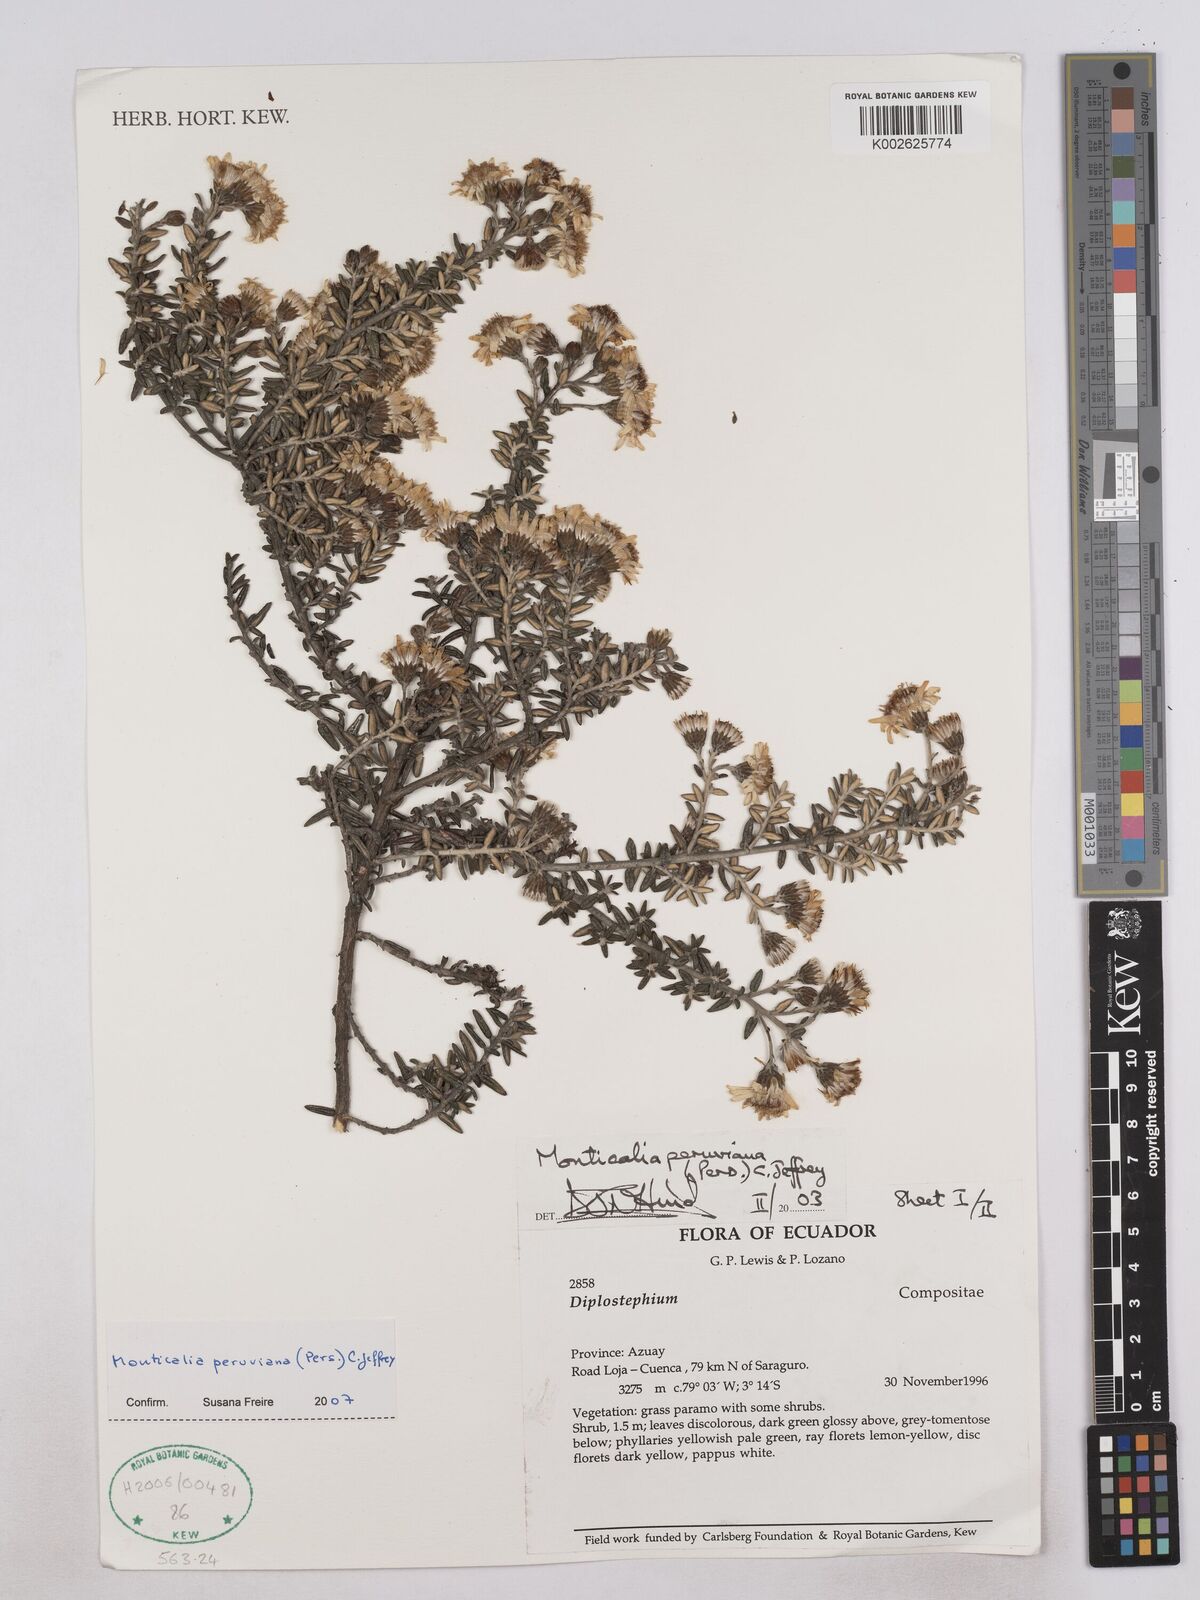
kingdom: Plantae
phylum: Tracheophyta
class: Magnoliopsida
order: Asterales
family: Asteraceae
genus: Monticalia
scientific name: Monticalia peruviana
